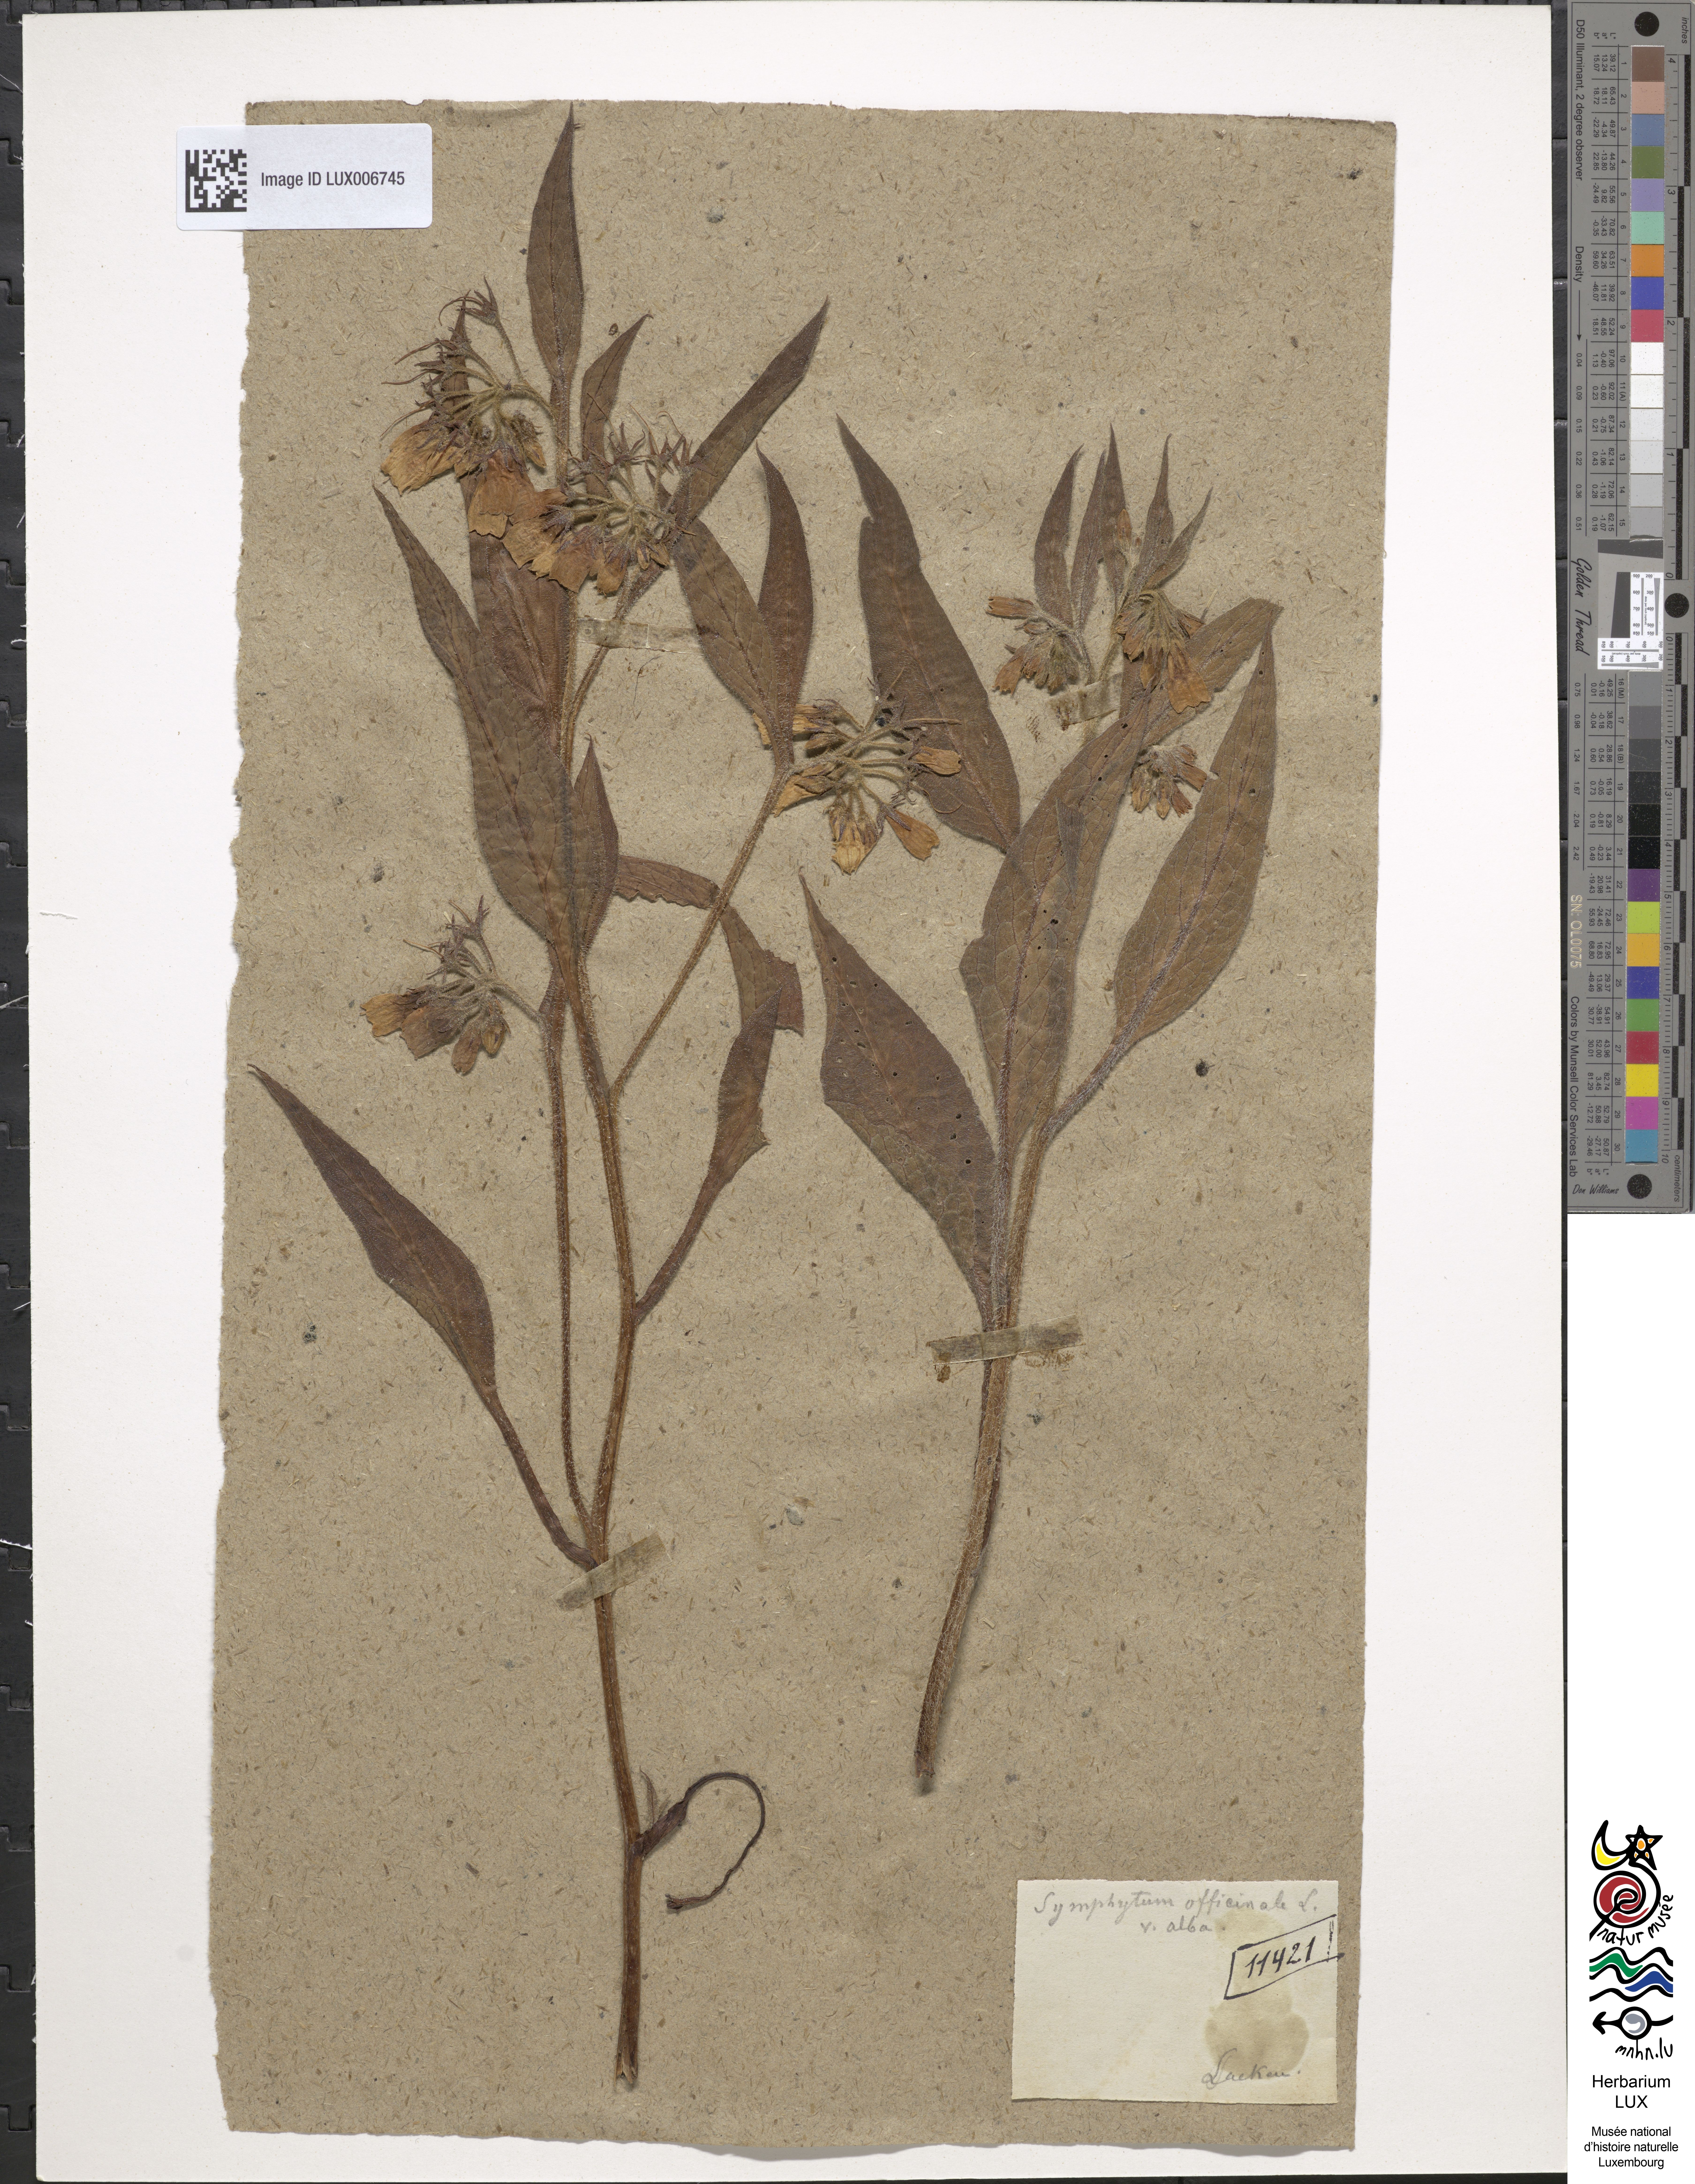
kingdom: Plantae
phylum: Tracheophyta
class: Magnoliopsida
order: Boraginales
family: Boraginaceae
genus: Symphytum
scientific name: Symphytum officinale
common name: Common comfrey
